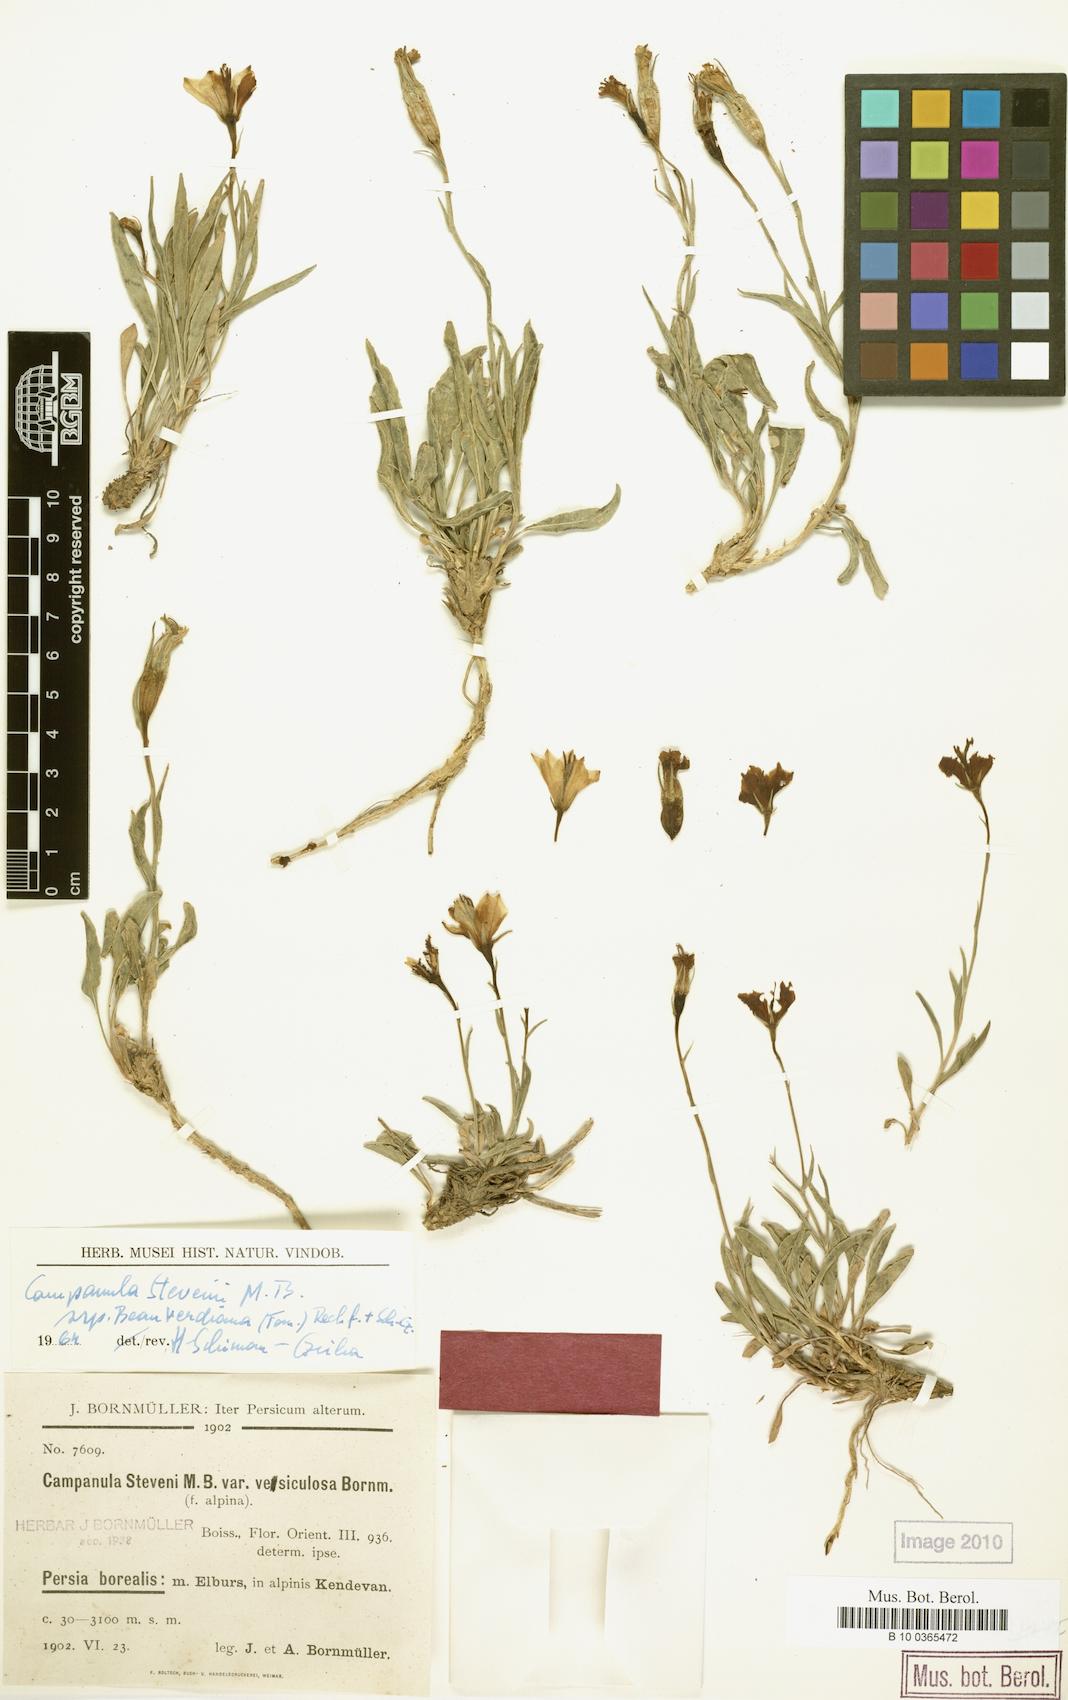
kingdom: Plantae
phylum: Tracheophyta
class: Magnoliopsida
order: Asterales
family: Campanulaceae
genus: Campanula
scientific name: Campanula stevenii
